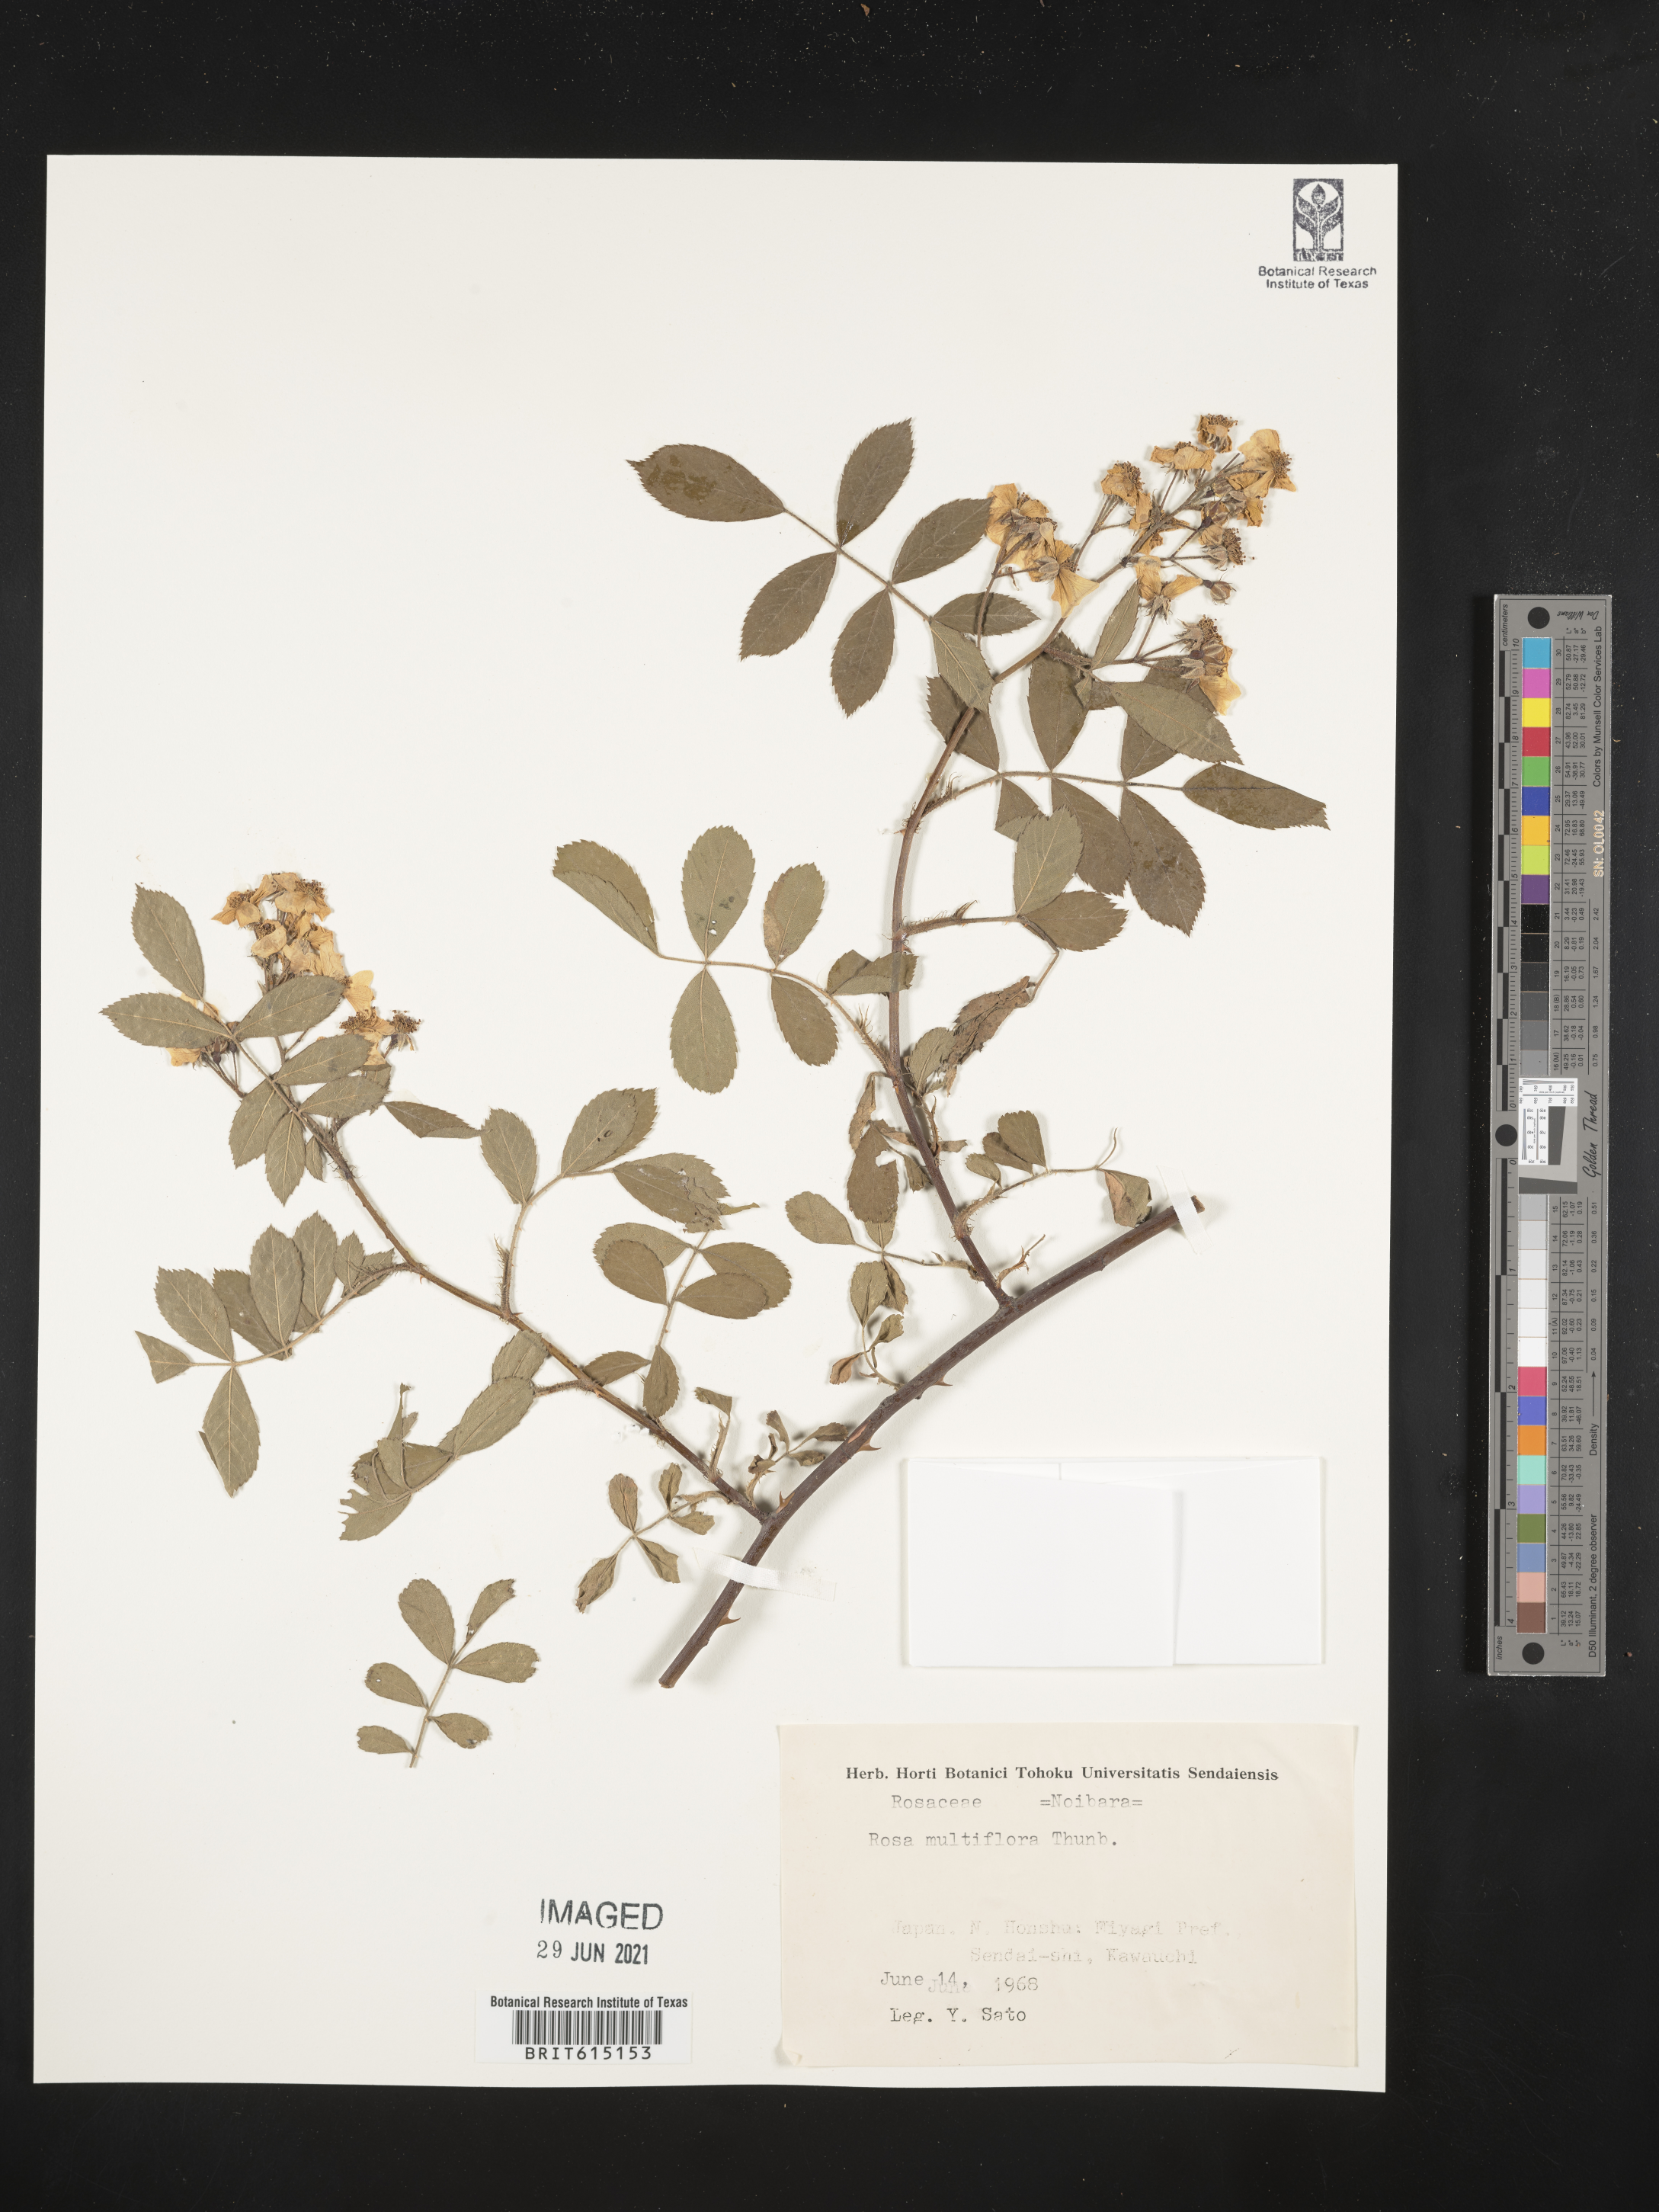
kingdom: Plantae
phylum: Tracheophyta
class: Magnoliopsida
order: Rosales
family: Rosaceae
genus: Rosa
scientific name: Rosa multiflora
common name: Multiflora rose
